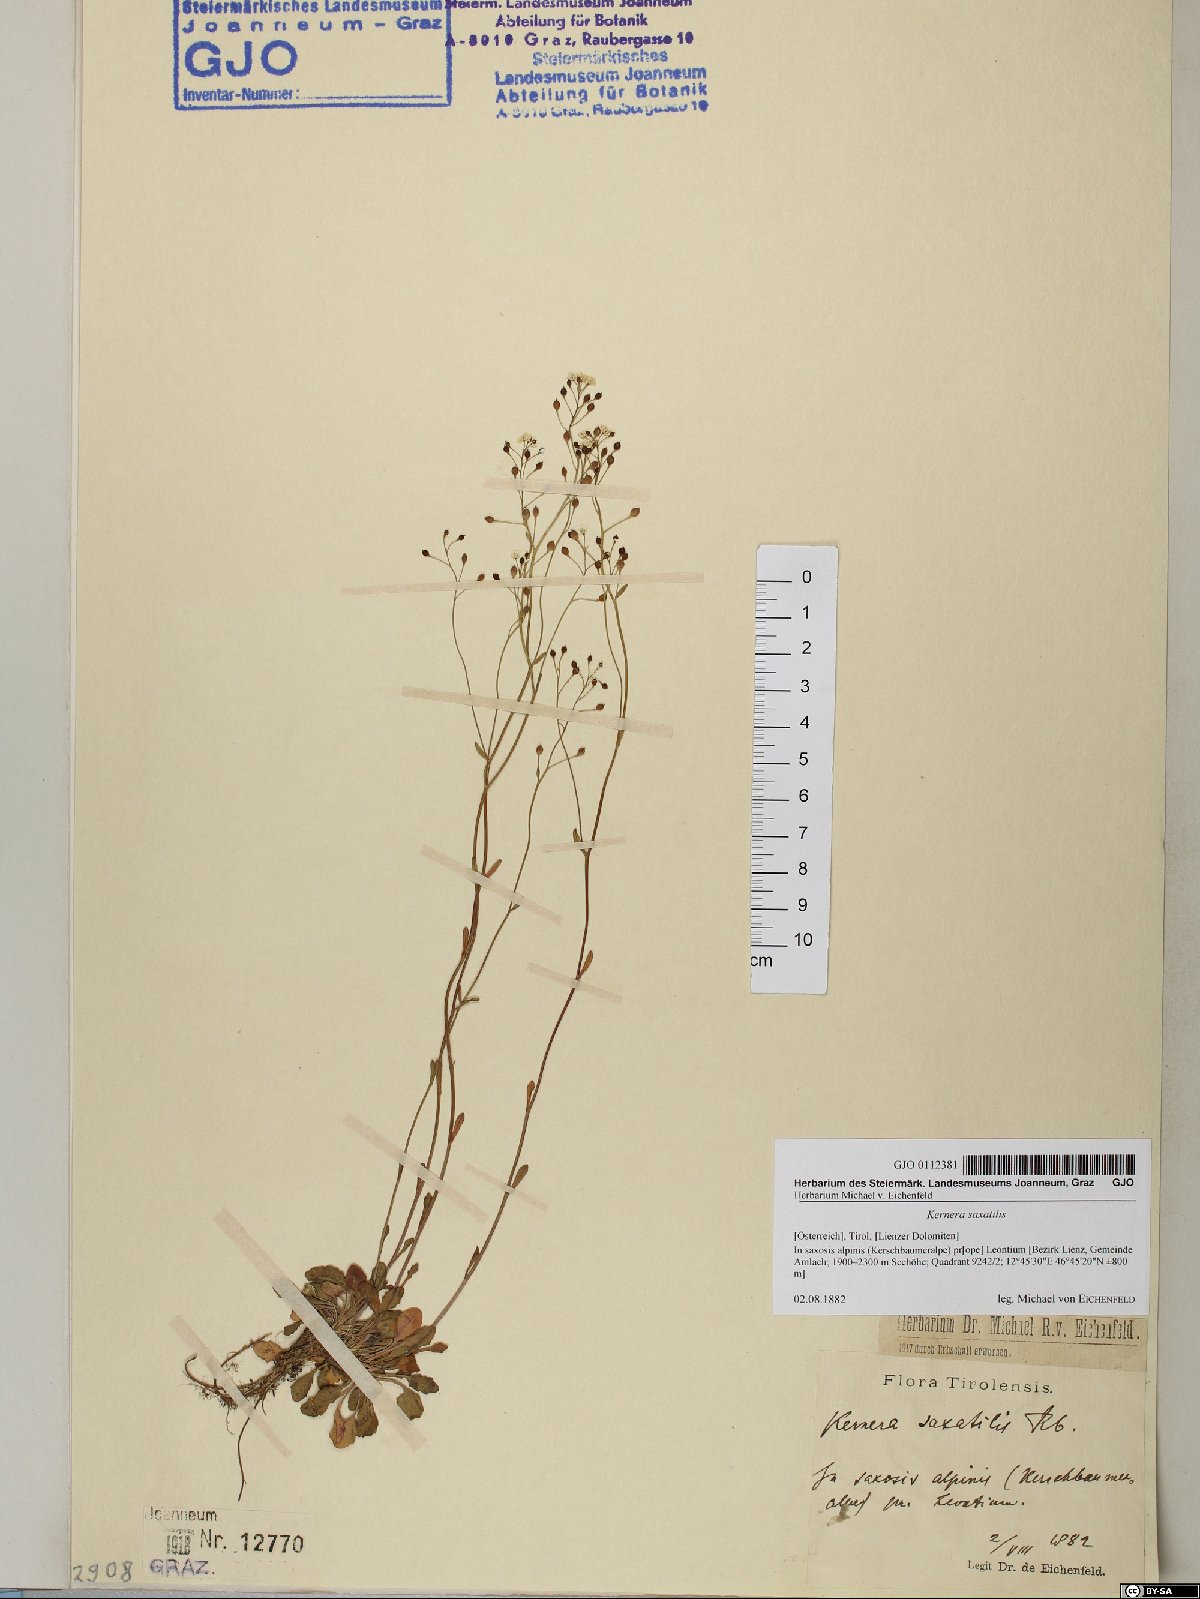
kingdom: Plantae
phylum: Tracheophyta
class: Magnoliopsida
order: Brassicales
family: Brassicaceae
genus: Kernera
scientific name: Kernera saxatilis
